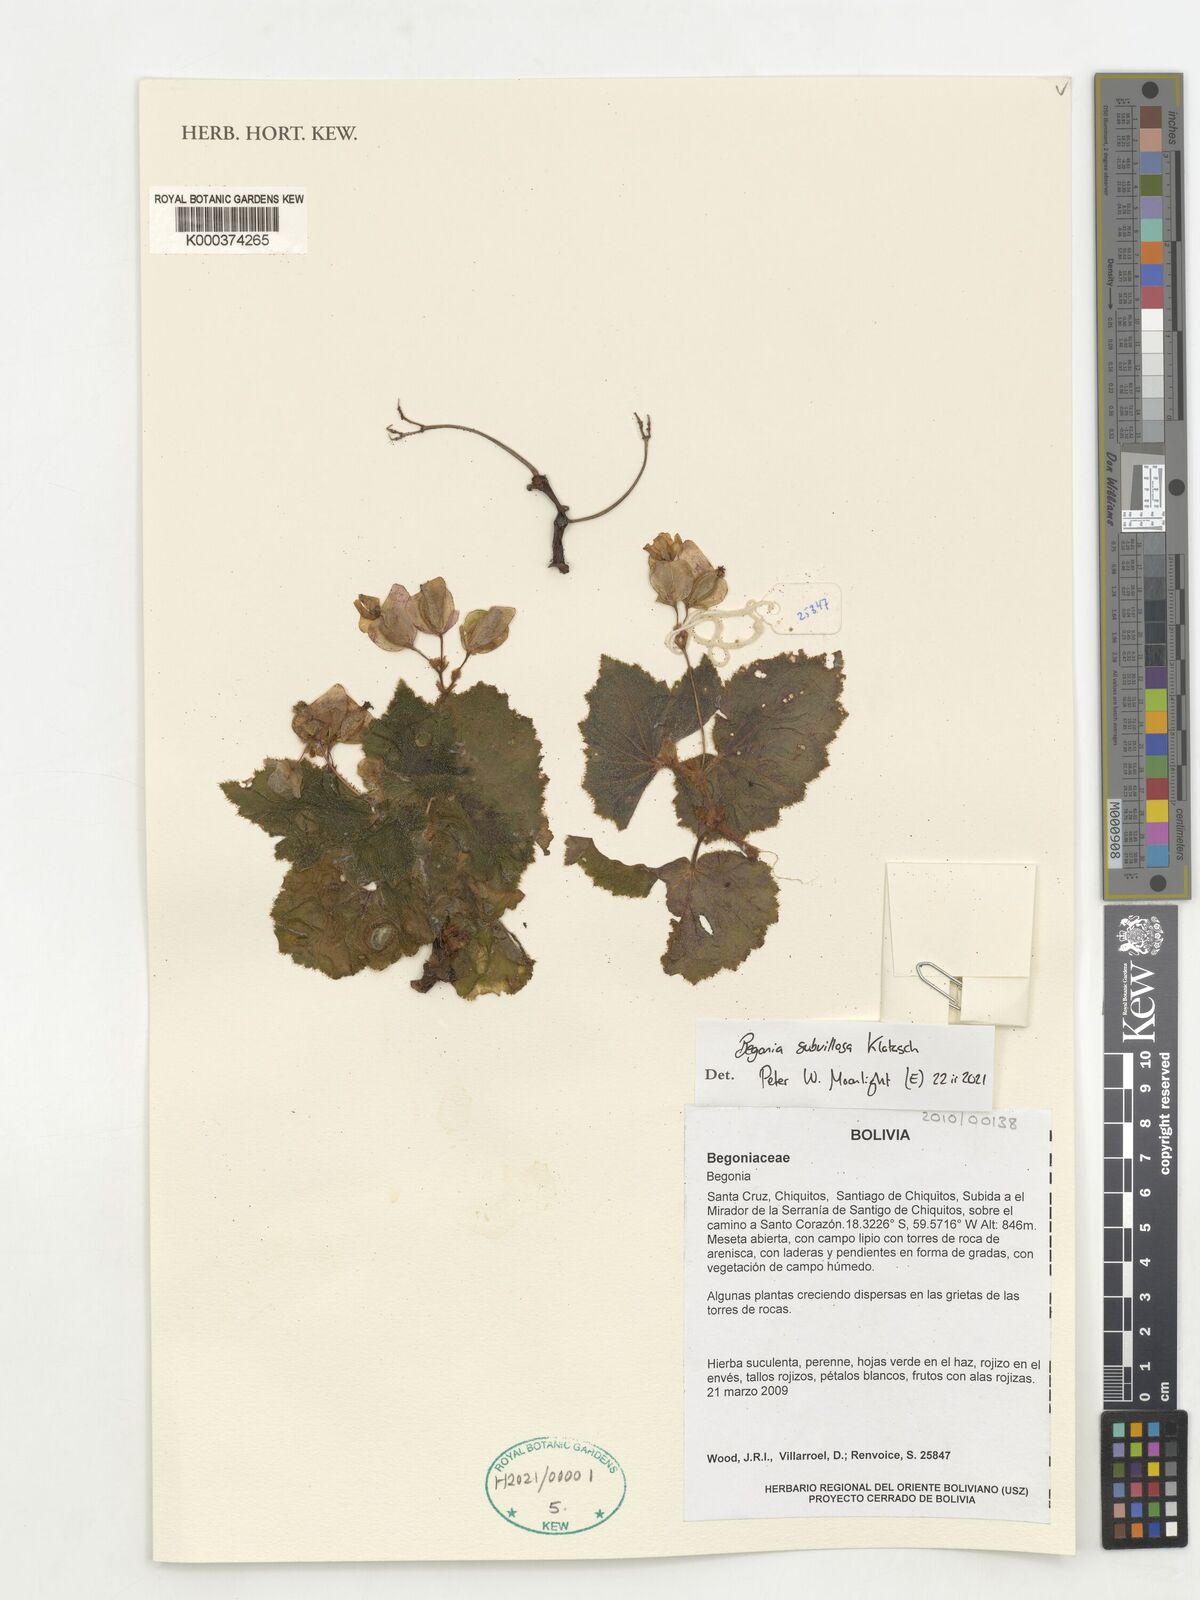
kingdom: Plantae
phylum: Tracheophyta
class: Magnoliopsida
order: Cucurbitales
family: Begoniaceae
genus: Begonia
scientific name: Begonia subvillosa
